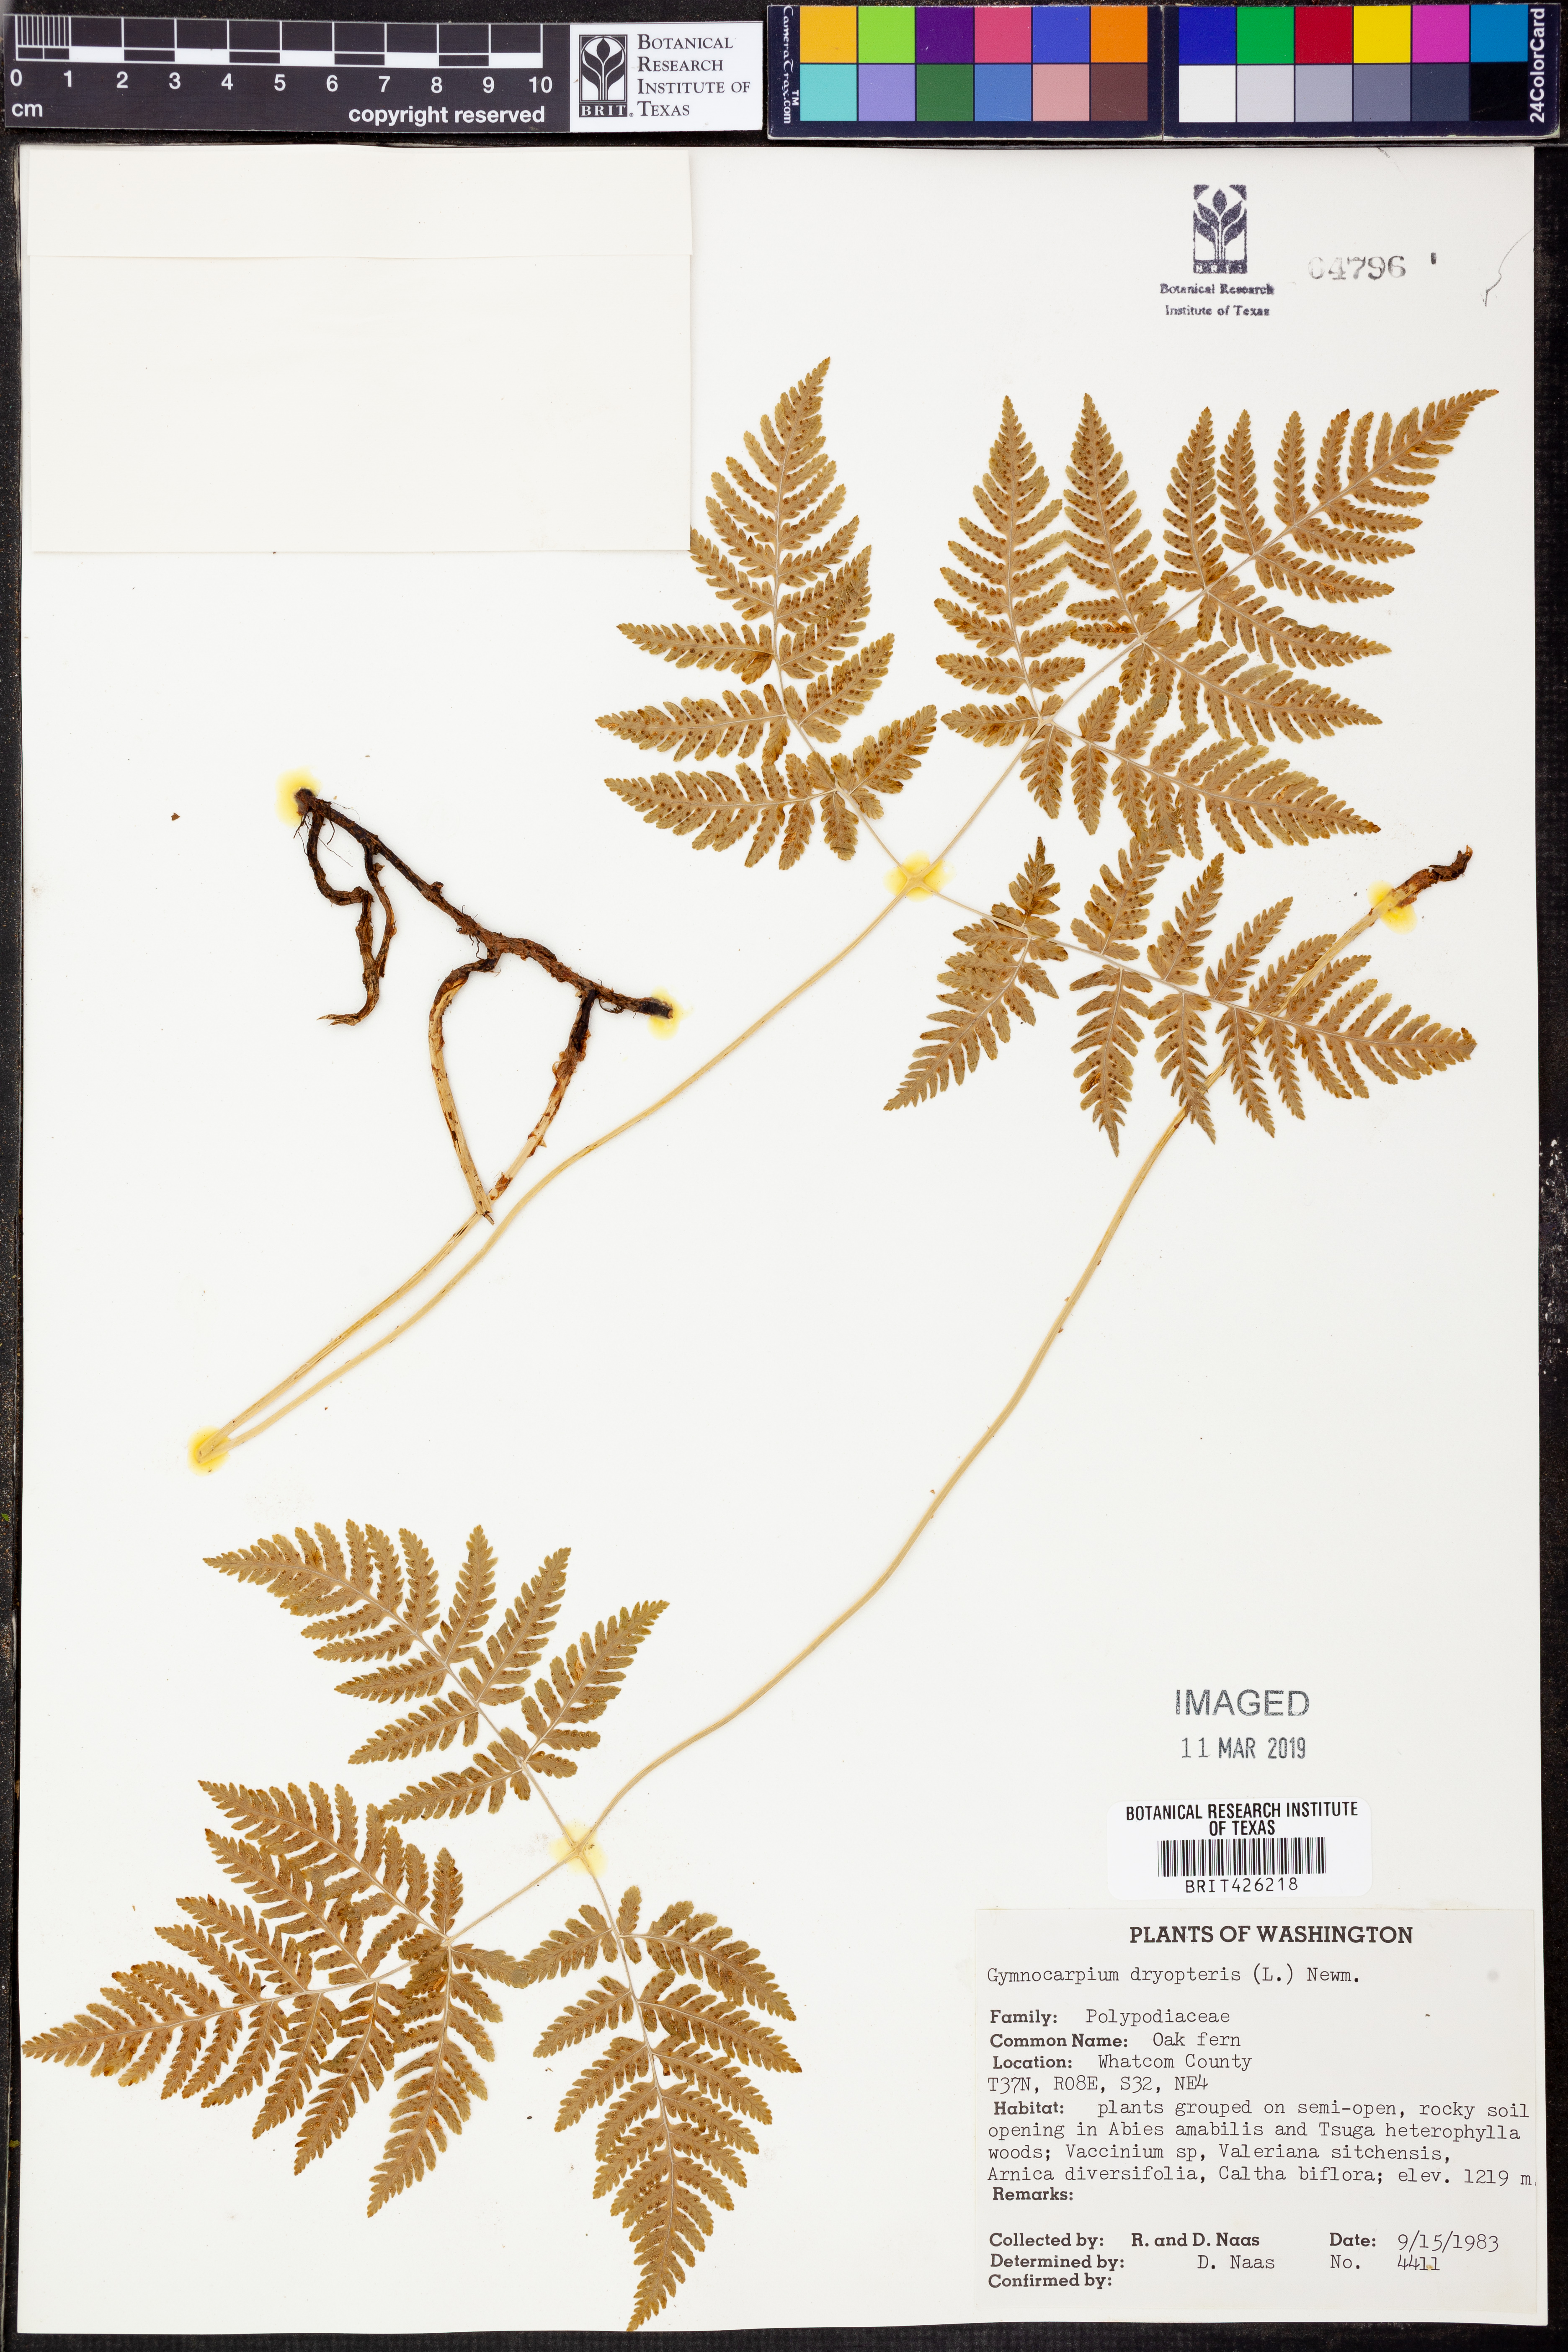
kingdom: Plantae
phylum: Tracheophyta
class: Polypodiopsida
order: Polypodiales
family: Cystopteridaceae
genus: Gymnocarpium
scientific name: Gymnocarpium dryopteris
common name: Oak fern
